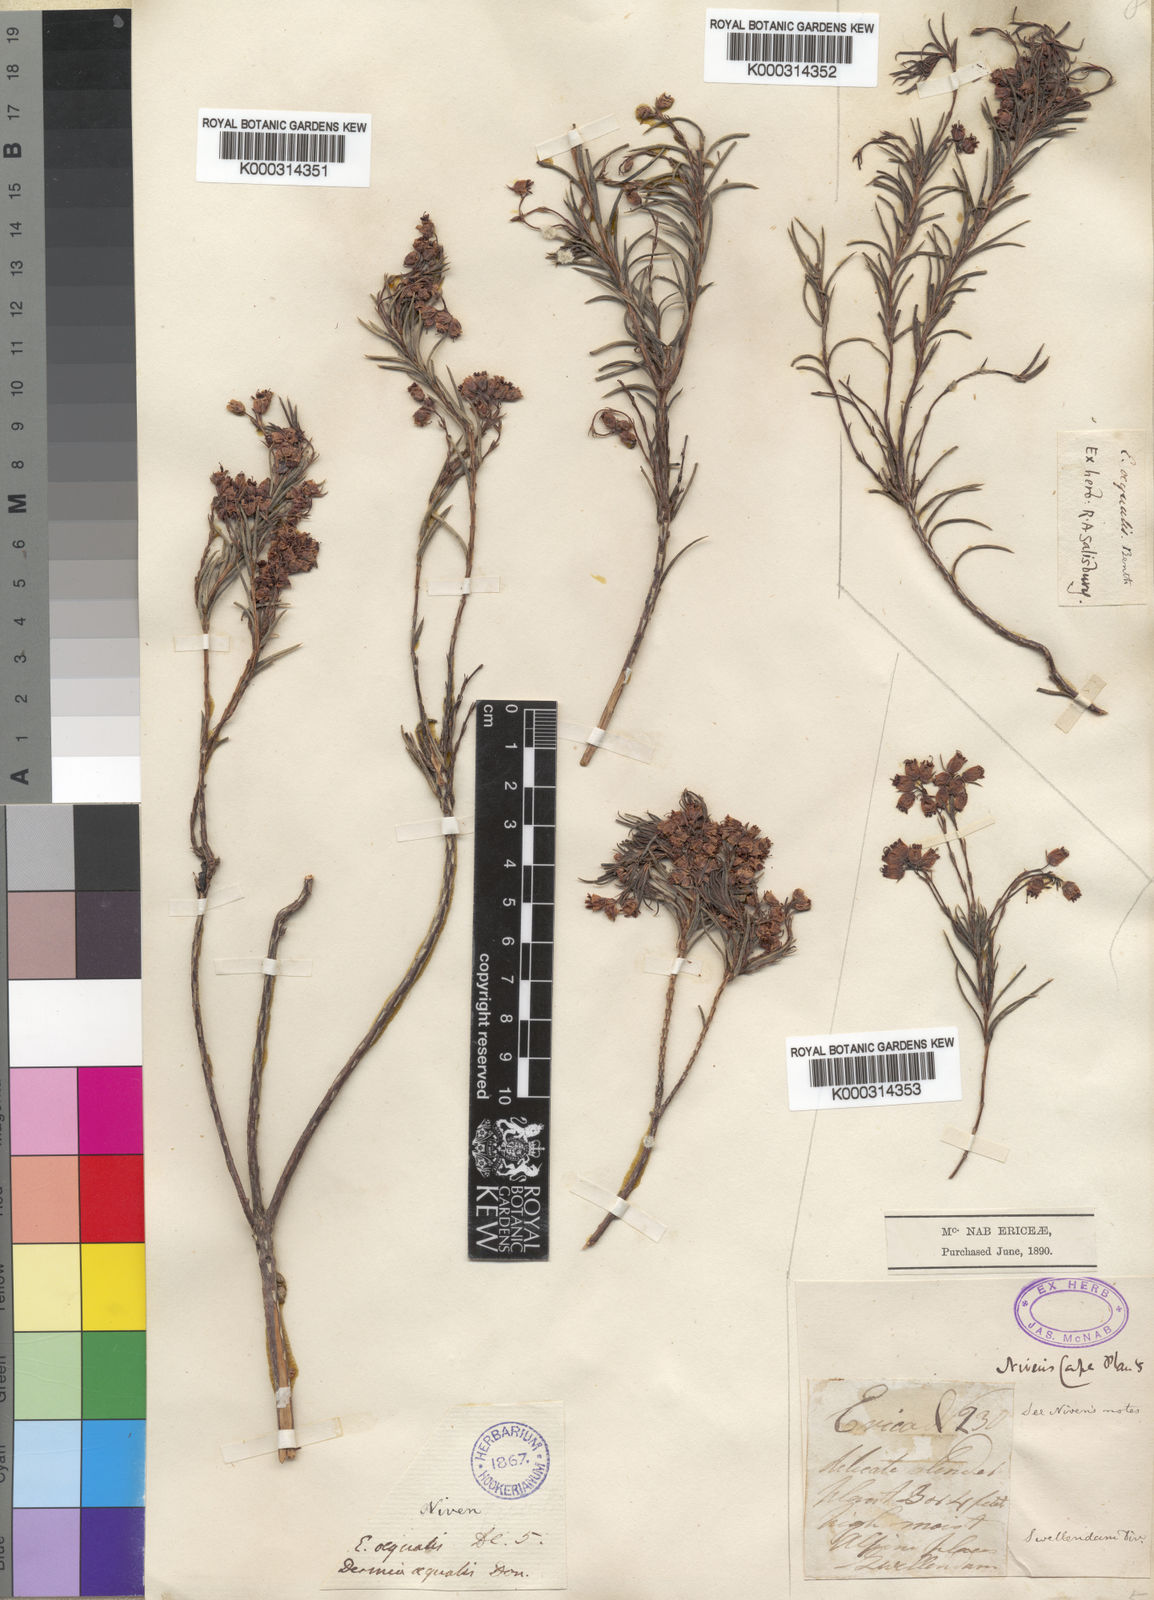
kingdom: Plantae
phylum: Tracheophyta
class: Magnoliopsida
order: Ericales
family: Ericaceae
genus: Erica
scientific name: Erica polifolia
